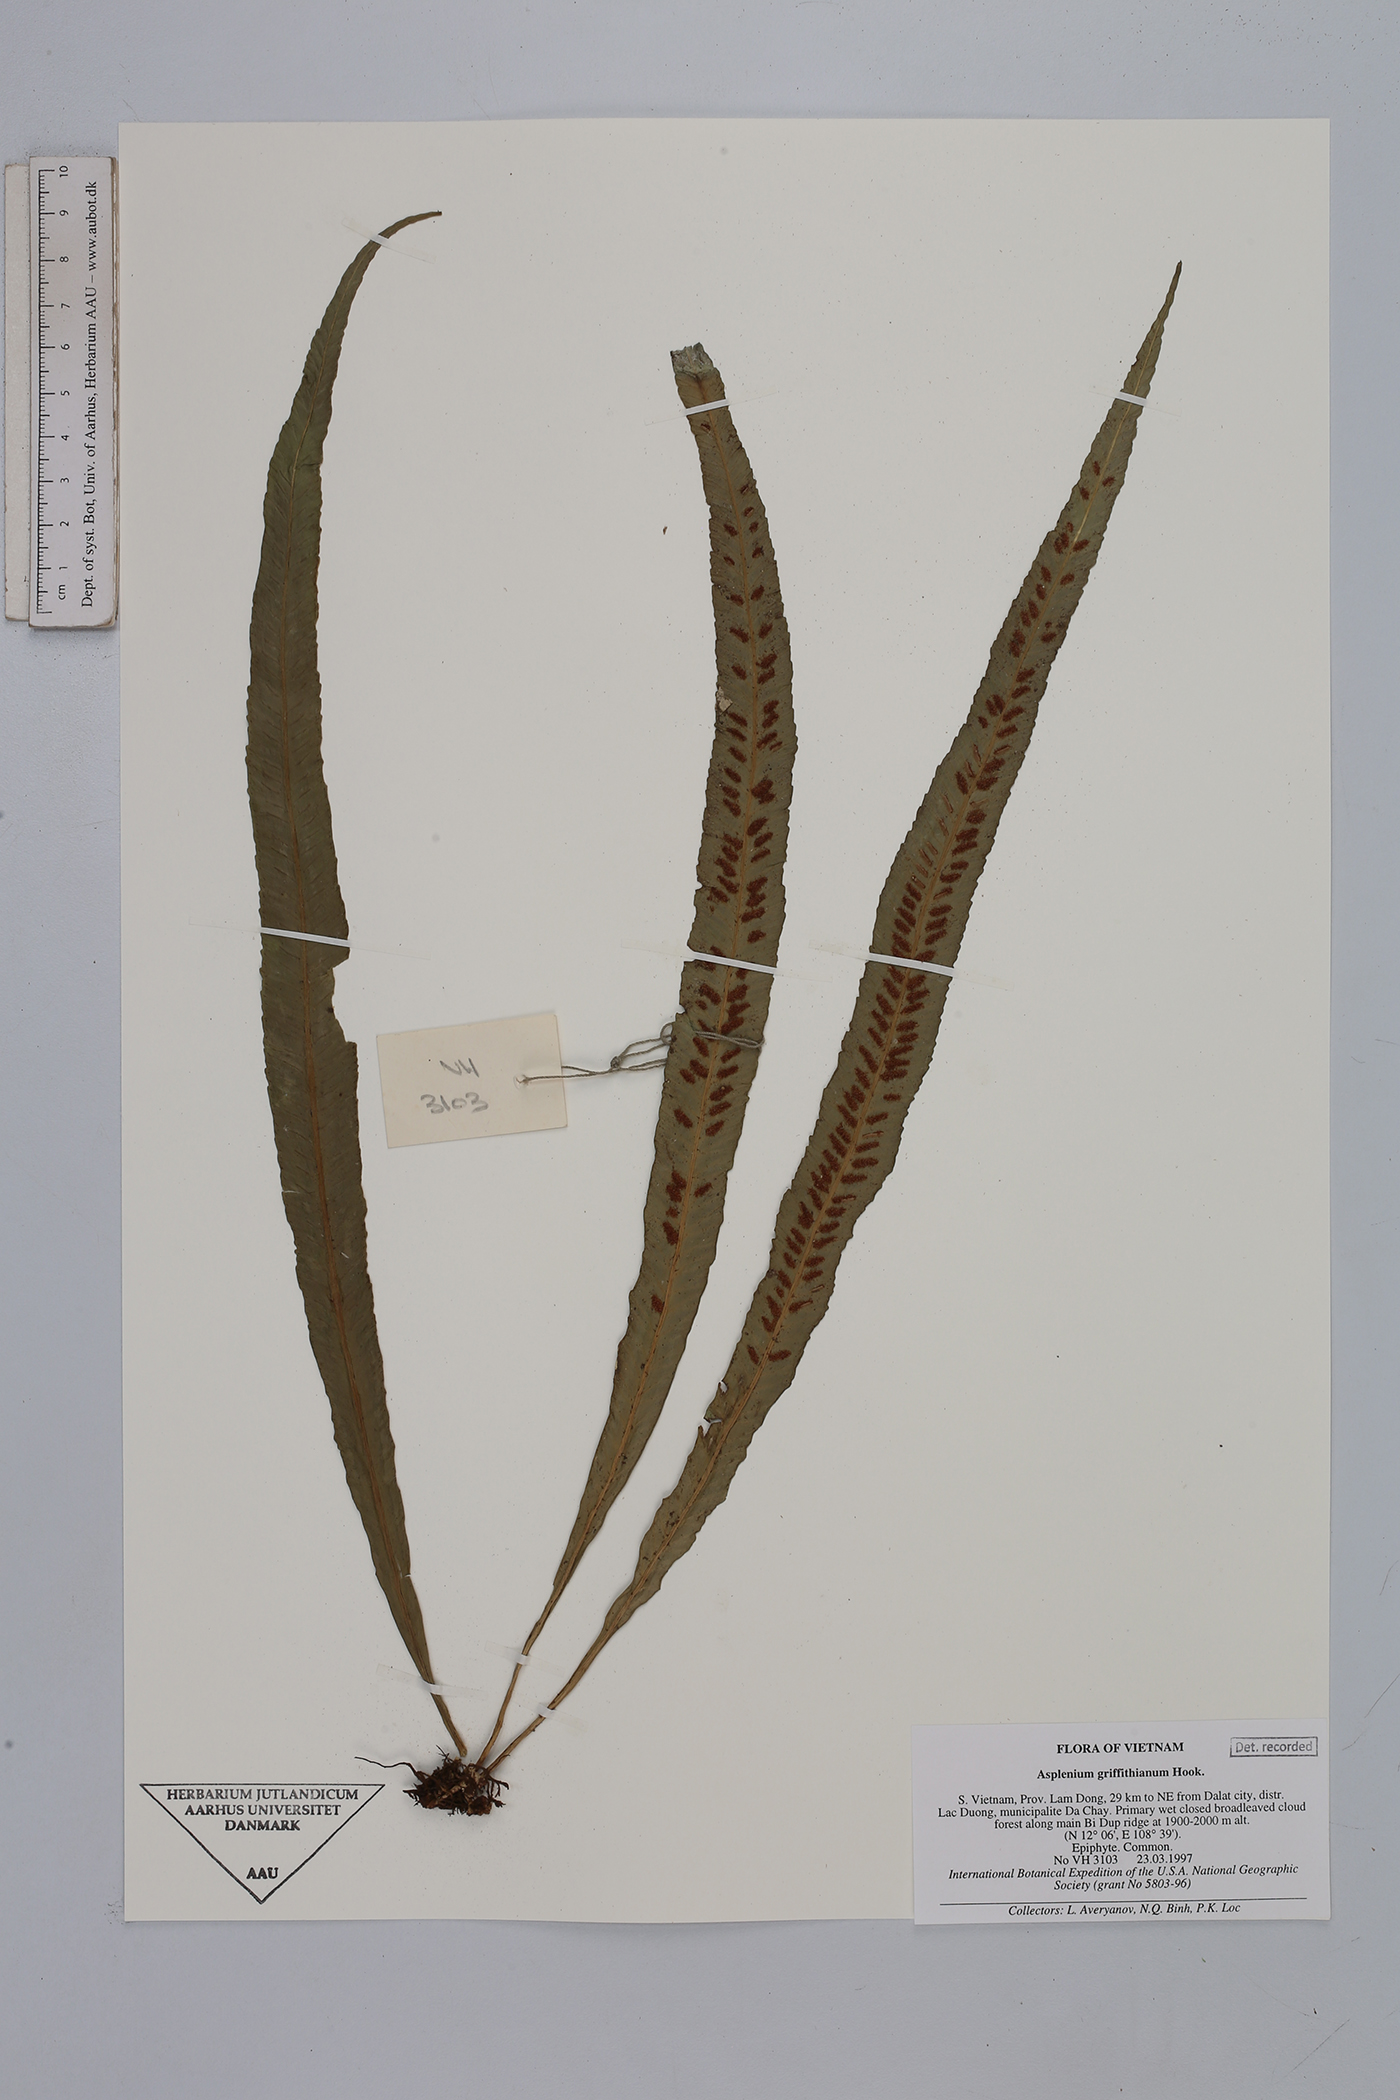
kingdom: Plantae
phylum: Tracheophyta
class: Polypodiopsida
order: Polypodiales
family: Aspleniaceae
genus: Asplenium
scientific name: Asplenium griffithianum
